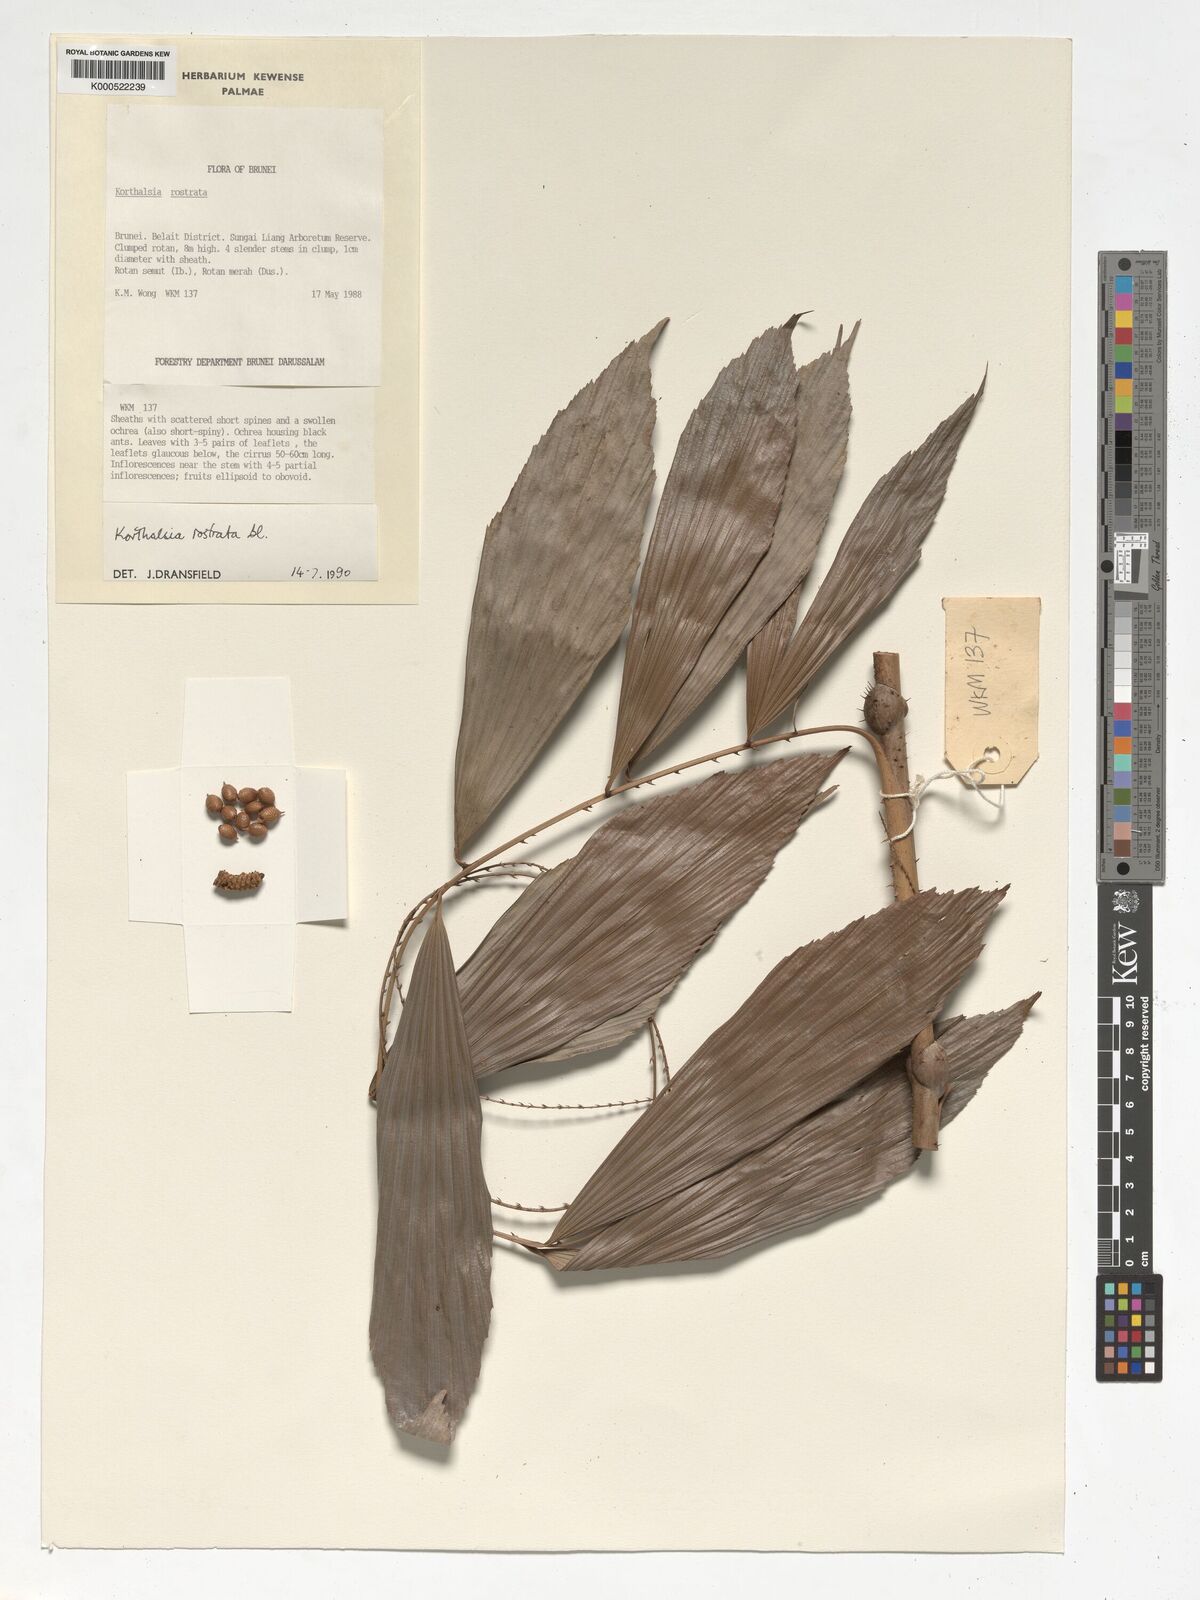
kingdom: Plantae
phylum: Tracheophyta
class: Liliopsida
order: Arecales
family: Arecaceae
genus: Korthalsia
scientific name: Korthalsia rostrata
